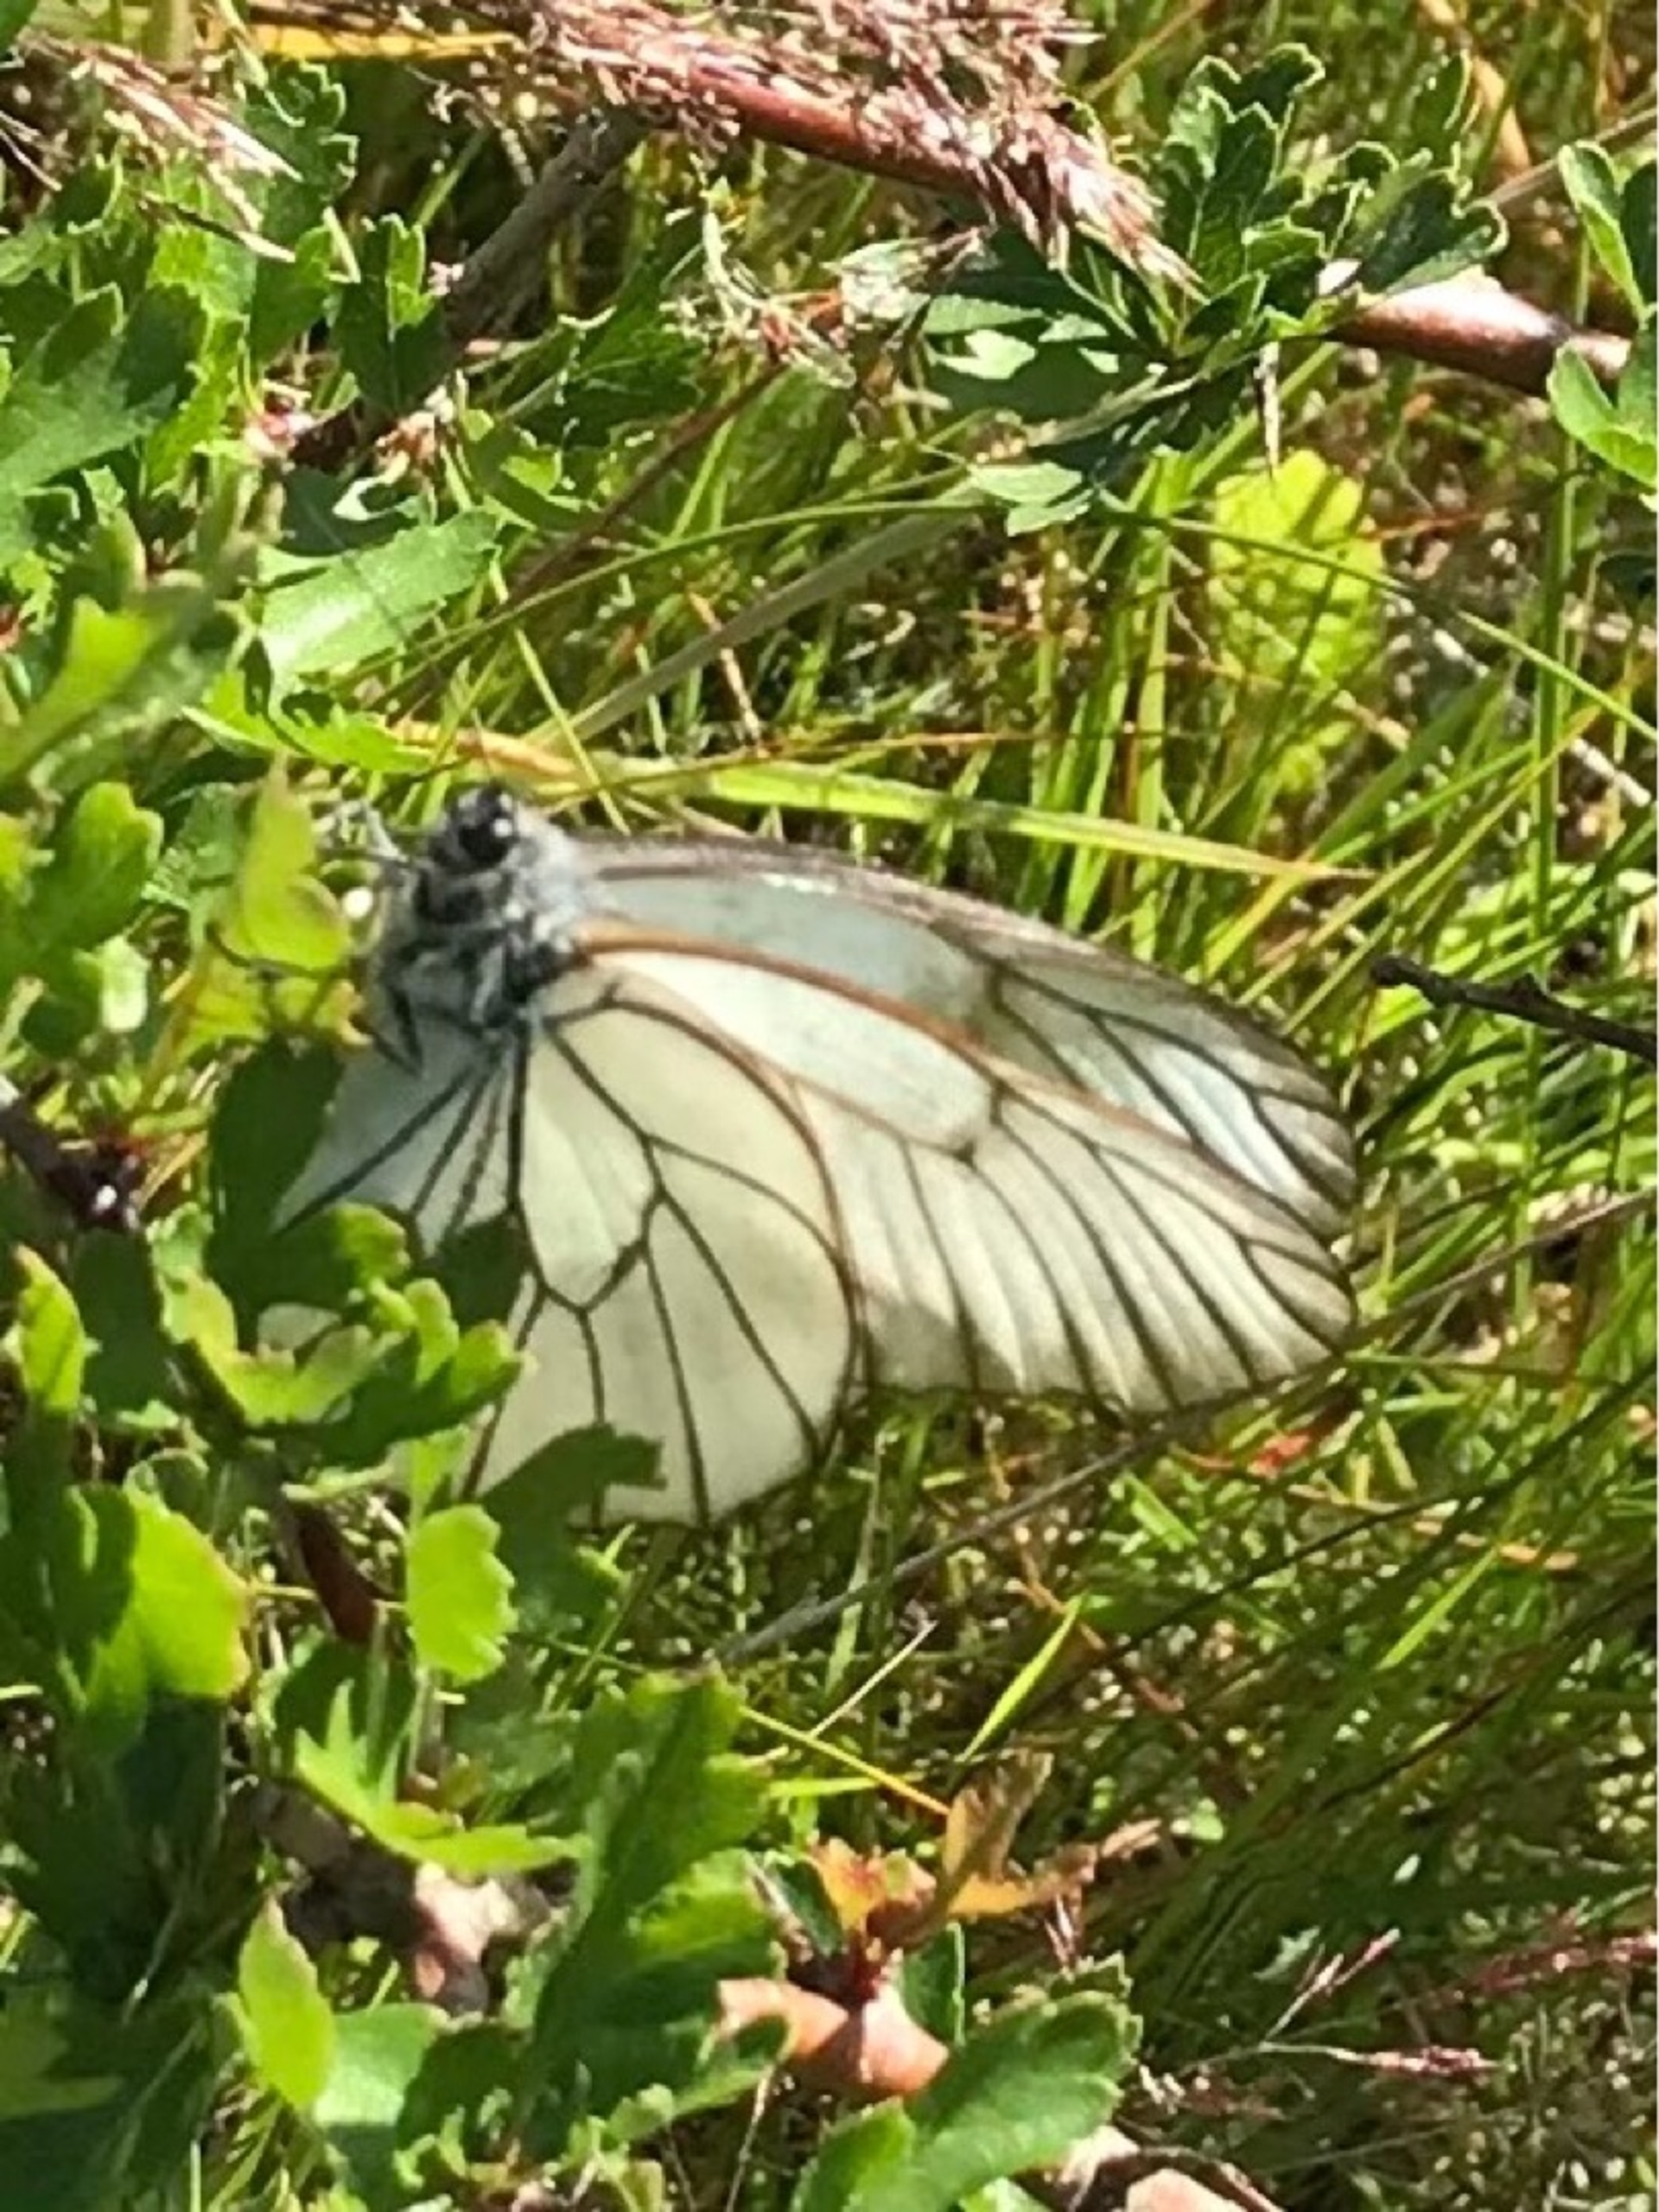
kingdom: Animalia
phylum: Arthropoda
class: Insecta
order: Lepidoptera
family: Pieridae
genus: Aporia
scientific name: Aporia crataegi
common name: Sortåret hvidvinge
